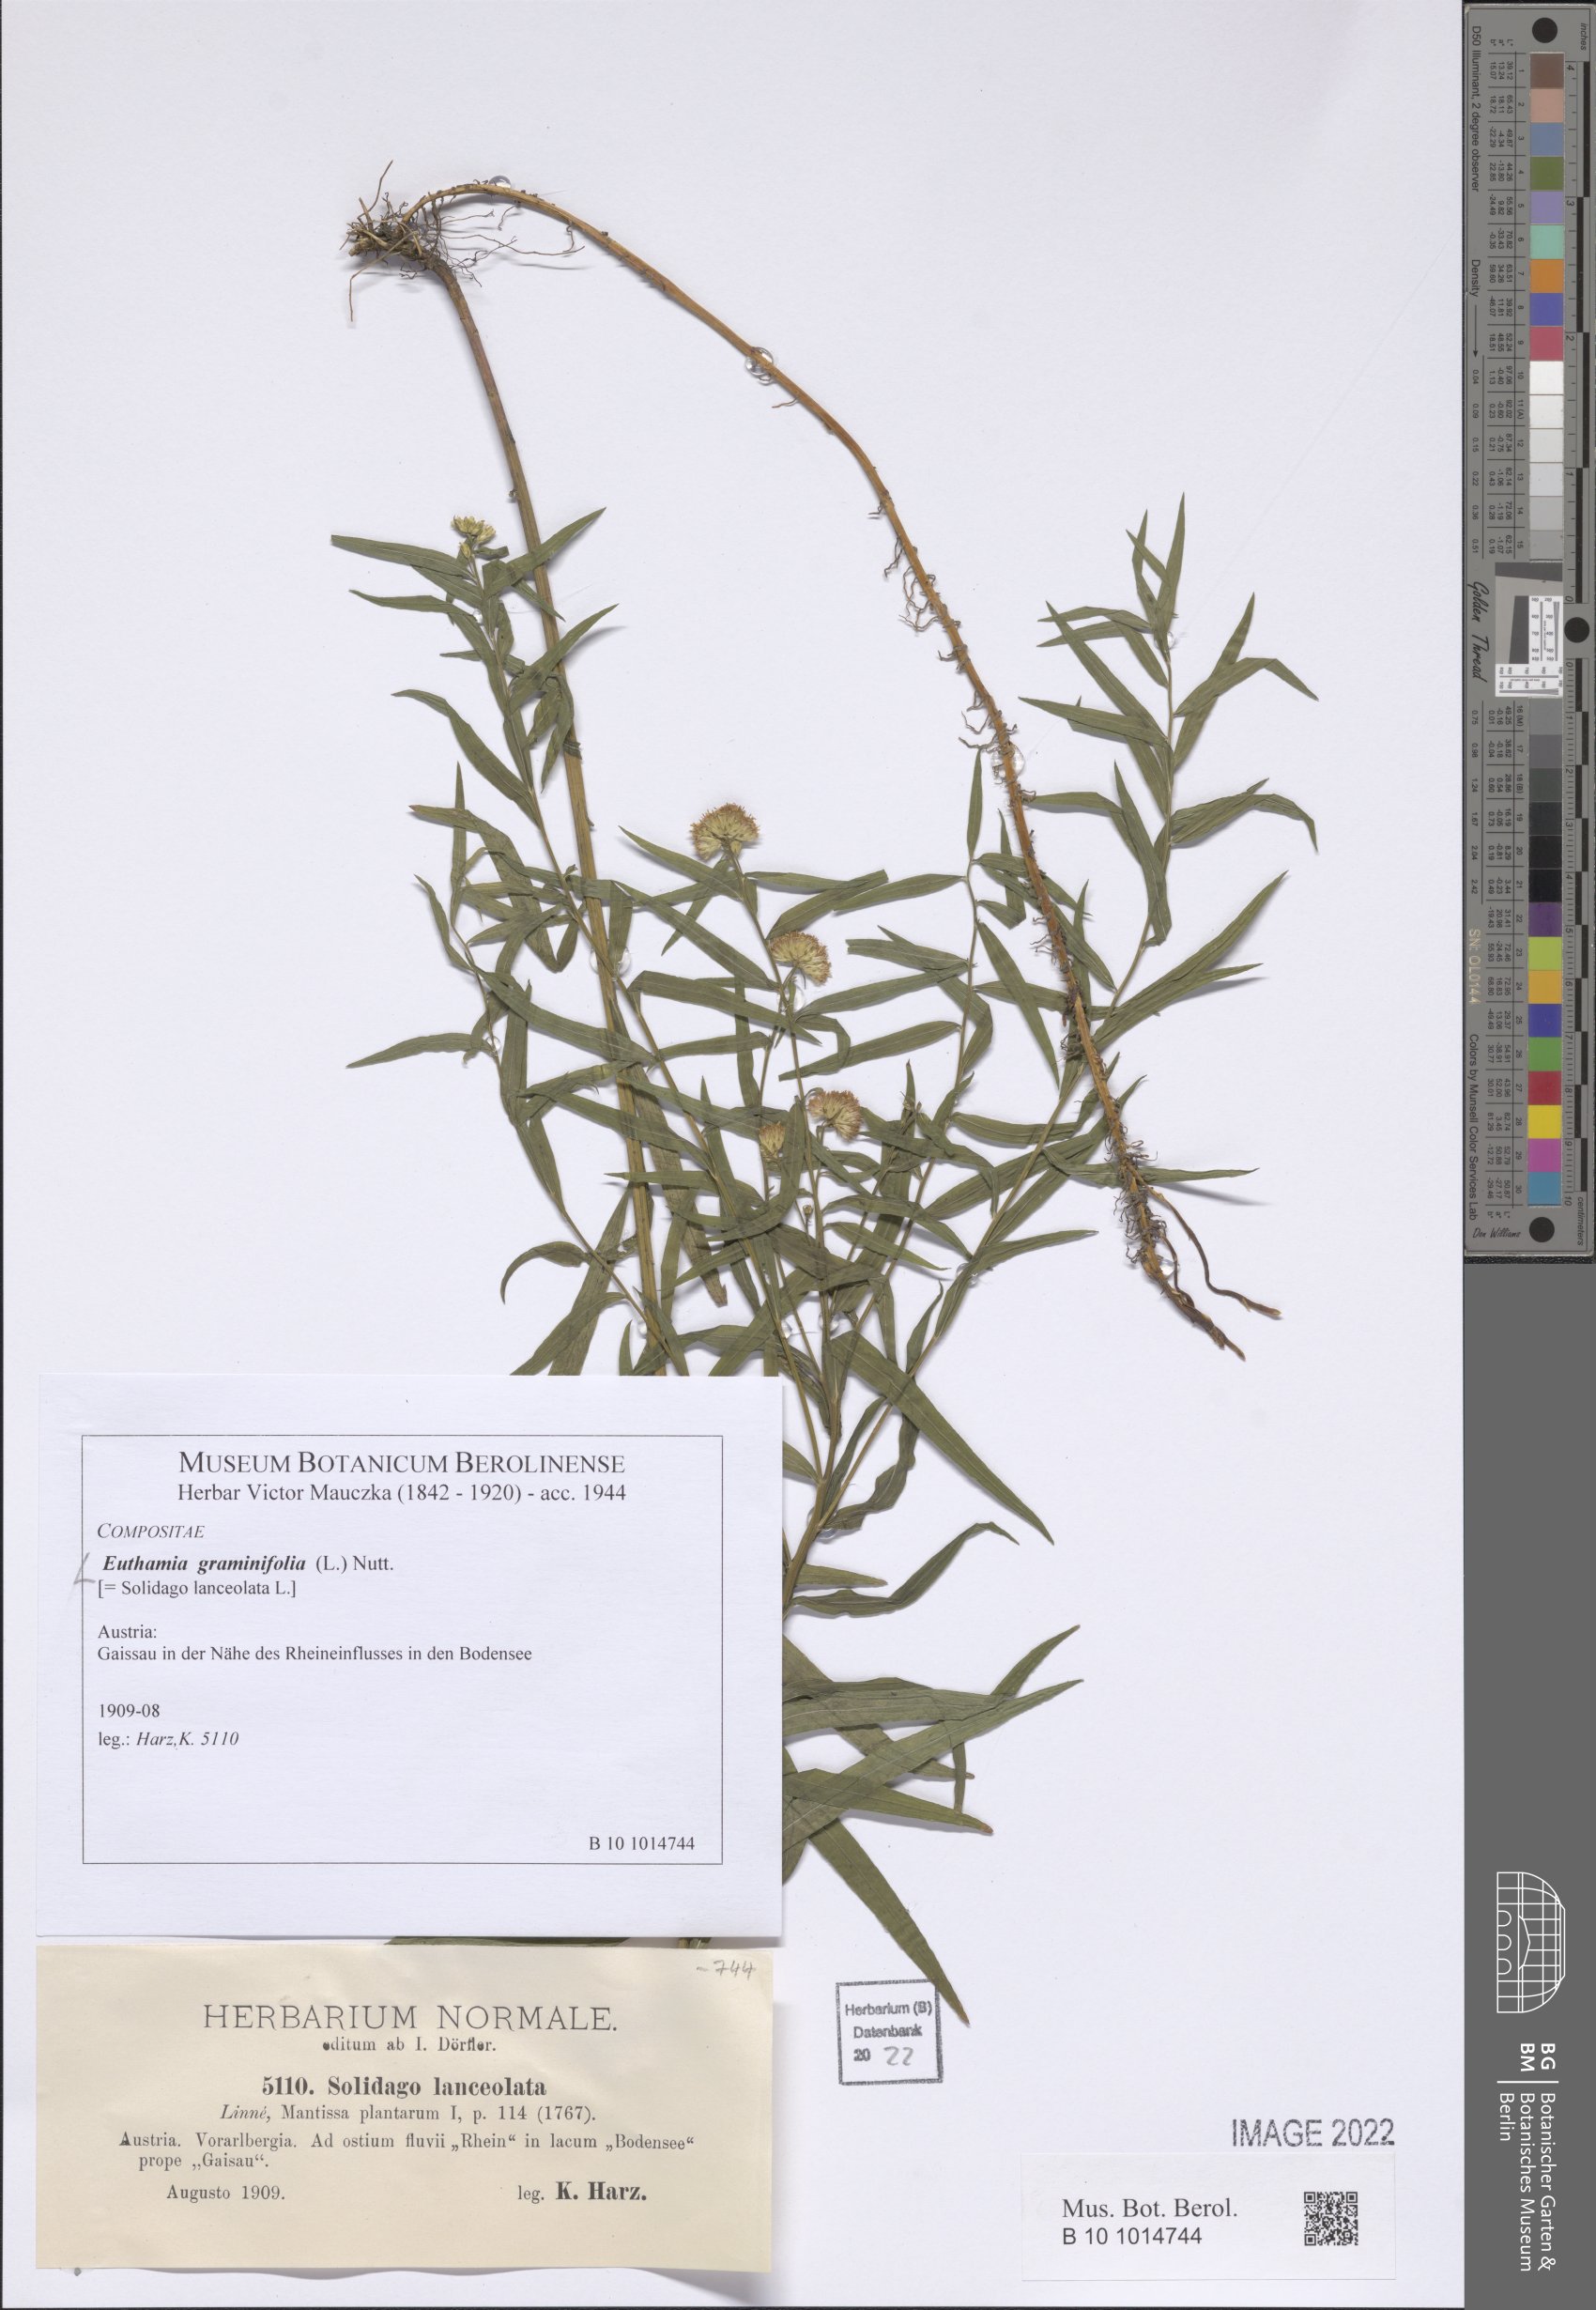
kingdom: Plantae
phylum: Tracheophyta
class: Magnoliopsida
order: Asterales
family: Asteraceae
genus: Euthamia
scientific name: Euthamia graminifolia
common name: Common goldentop
